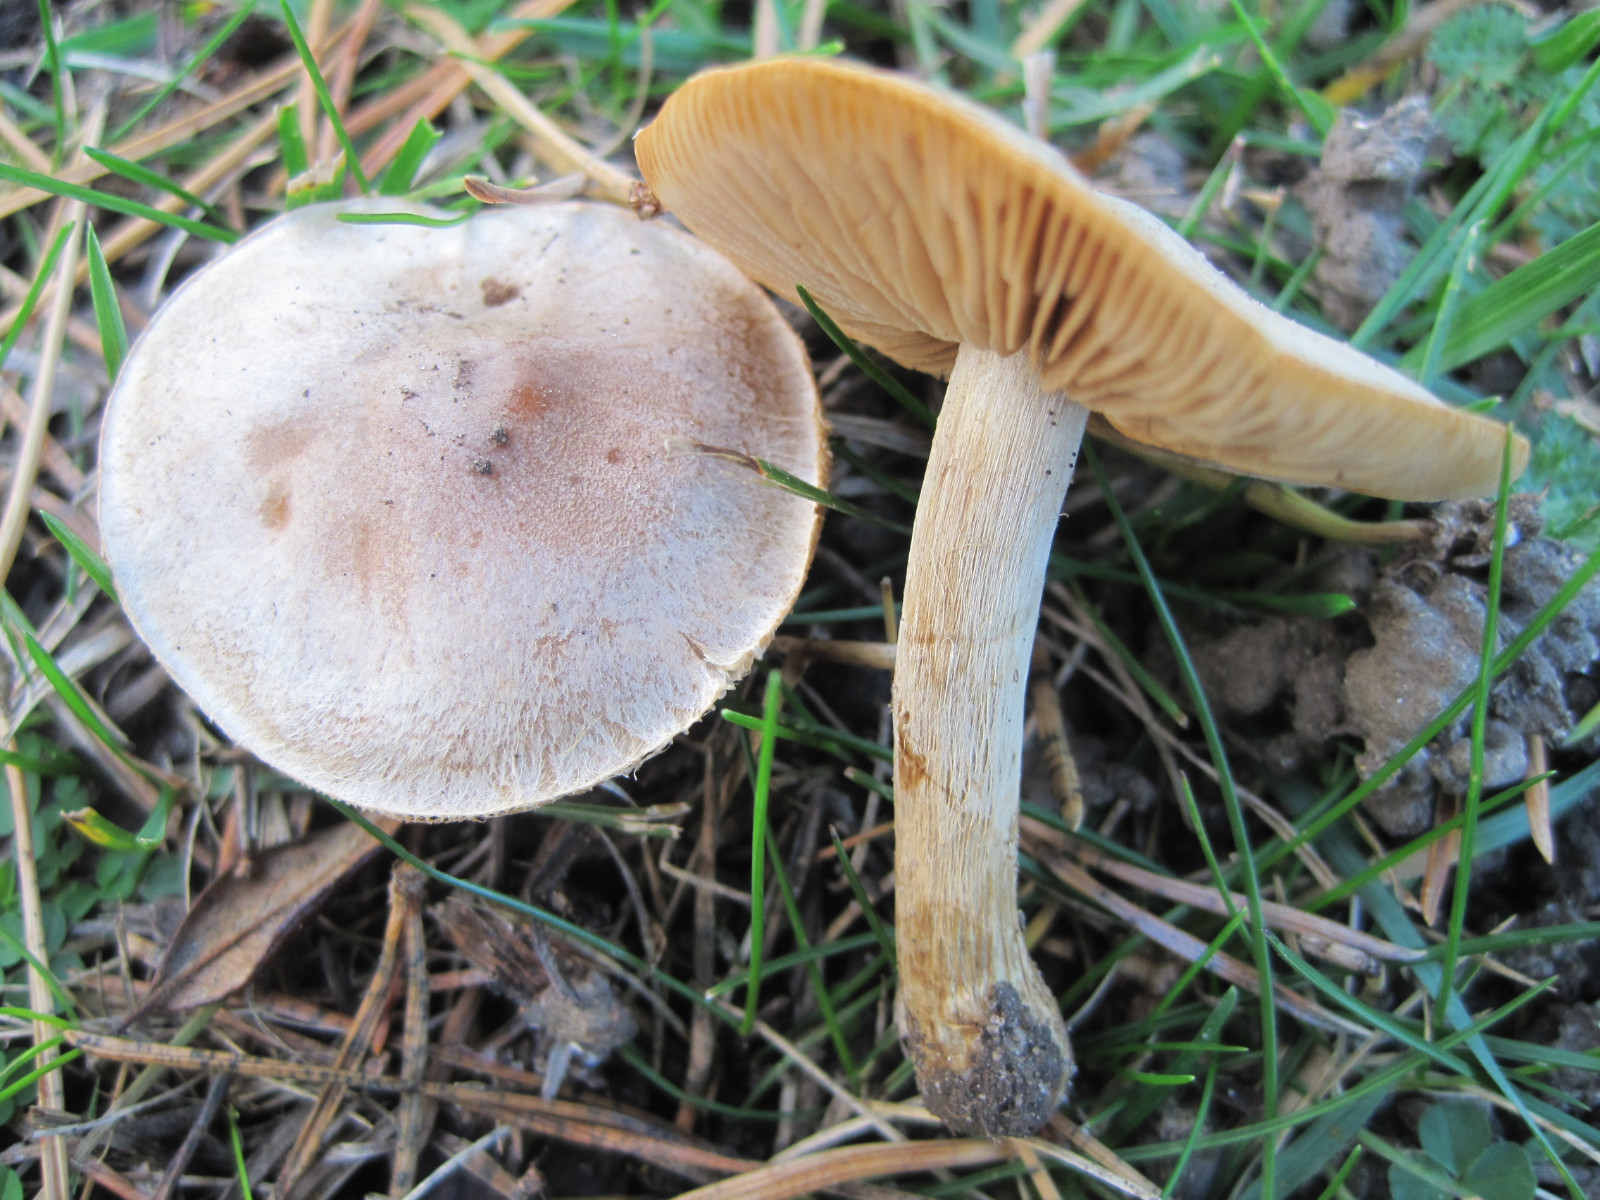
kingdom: Fungi
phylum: Basidiomycota
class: Agaricomycetes
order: Agaricales
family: Hymenogastraceae
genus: Hebeloma
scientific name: Hebeloma mesophaeum
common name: lerbrun tåreblad
